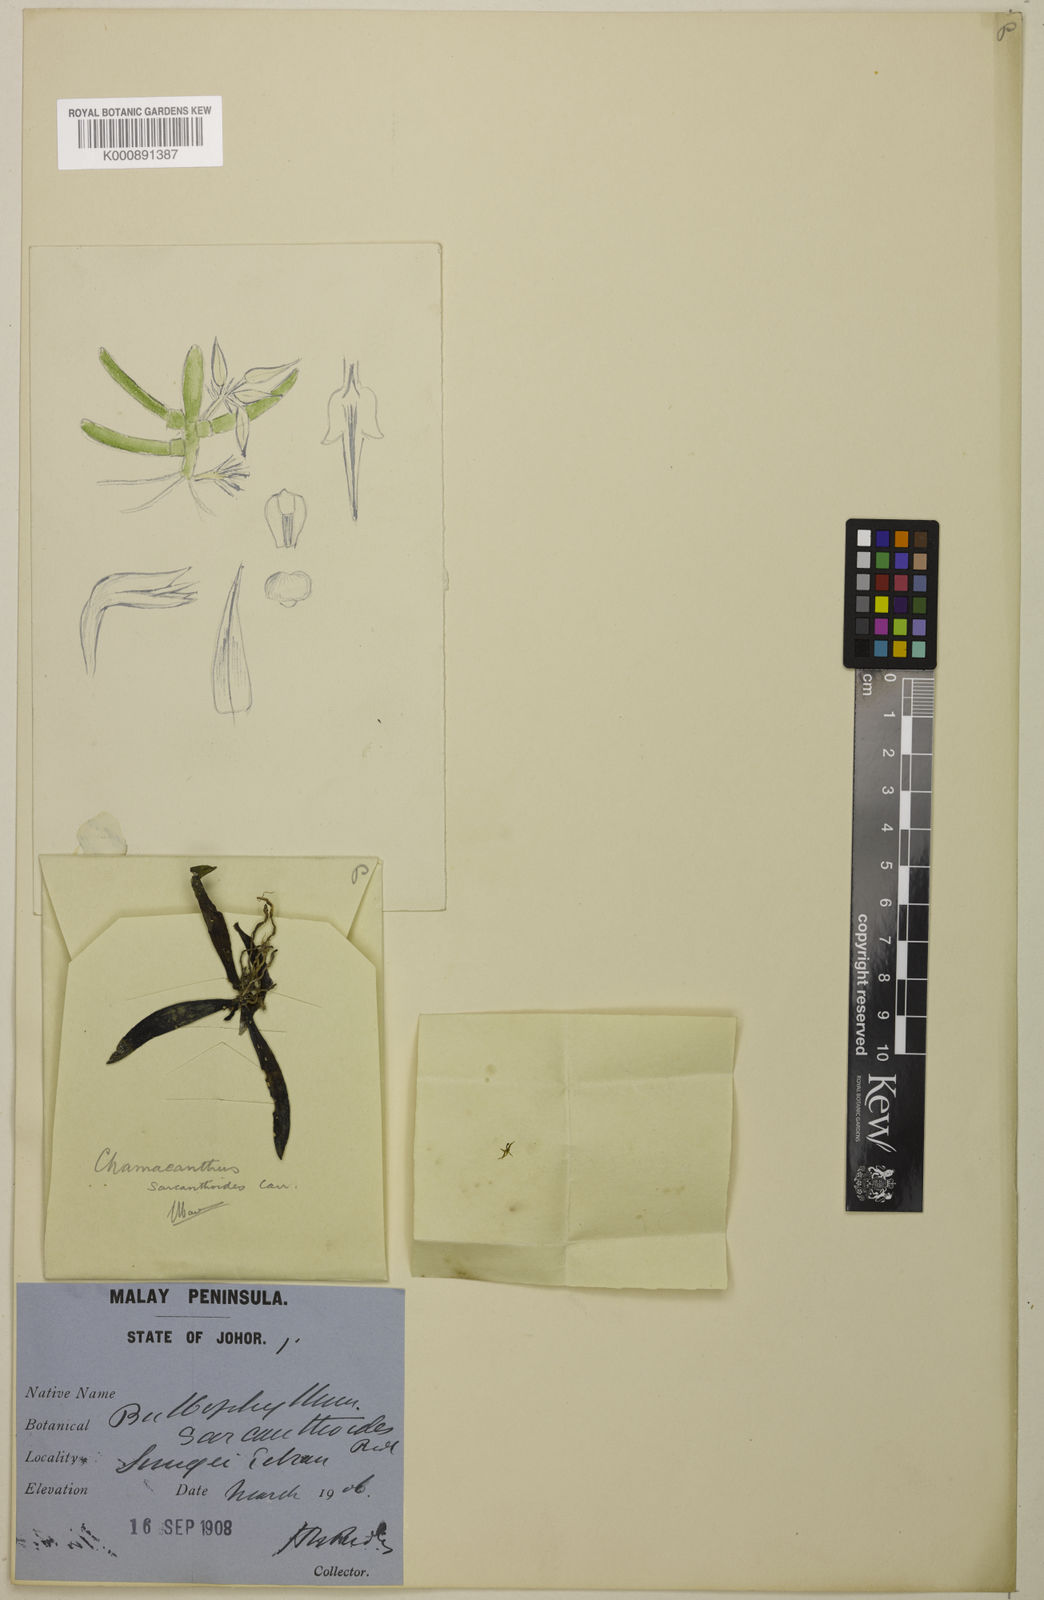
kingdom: Plantae
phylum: Tracheophyta
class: Liliopsida
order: Asparagales
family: Orchidaceae
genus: Biermannia
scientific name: Biermannia sarcanthoides
